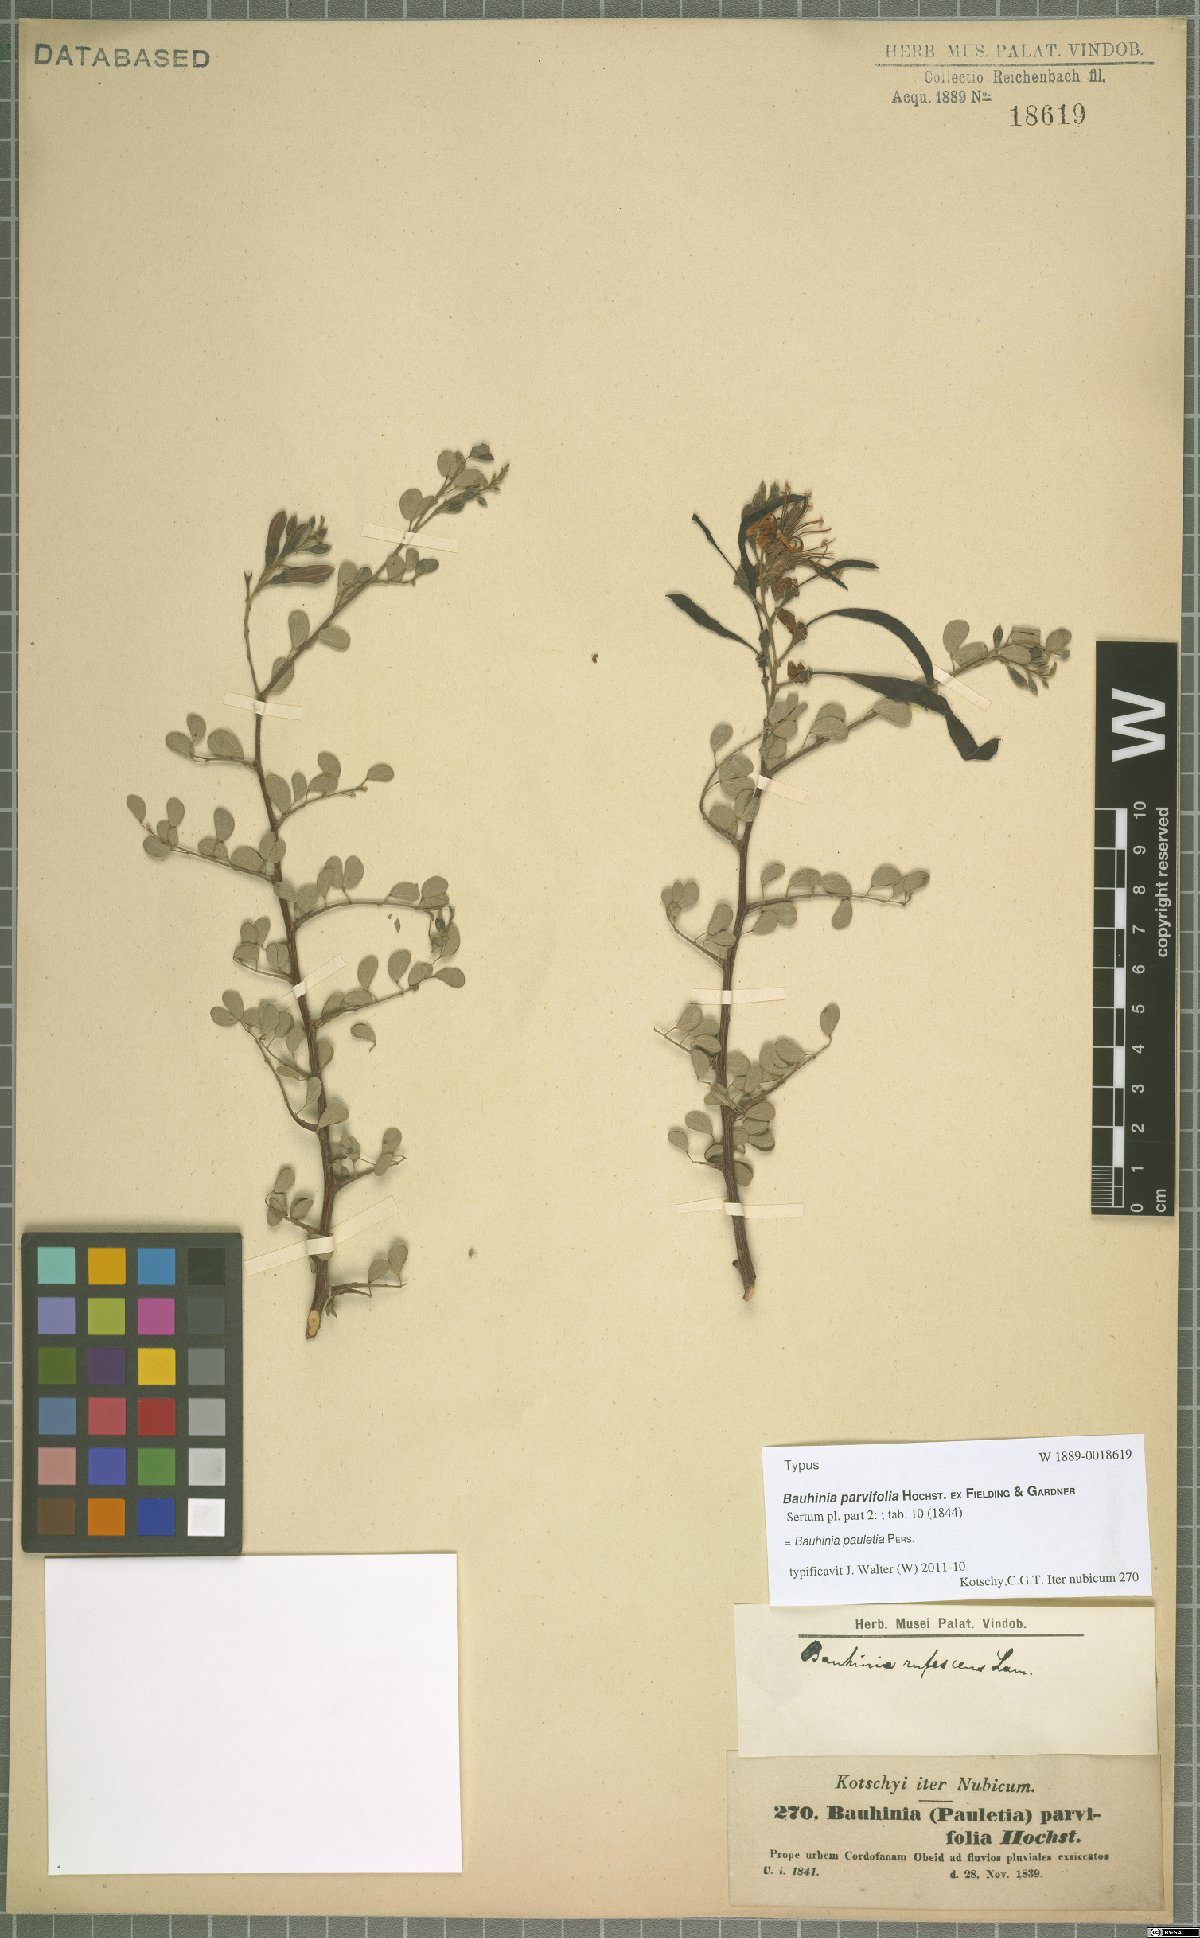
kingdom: Plantae
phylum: Tracheophyta
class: Magnoliopsida
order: Fabales
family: Fabaceae
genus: Bauhinia
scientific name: Bauhinia pauletia
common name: Railway-fence bauhinia
